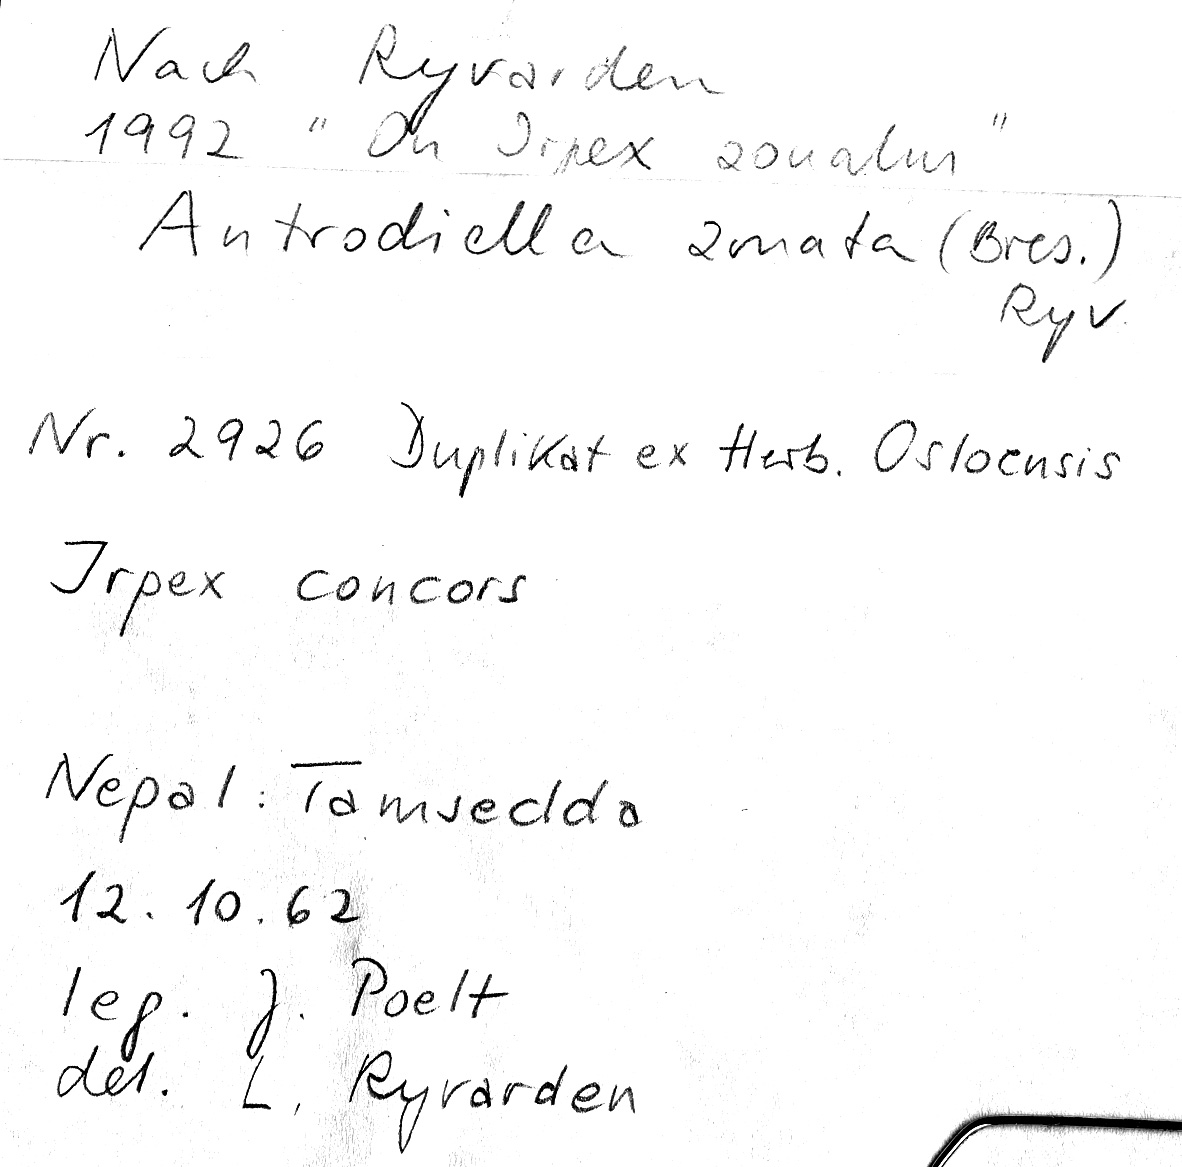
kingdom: Fungi
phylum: Basidiomycota
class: Agaricomycetes
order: Polyporales
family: Cerrenaceae
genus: Cerrena
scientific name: Cerrena zonata
